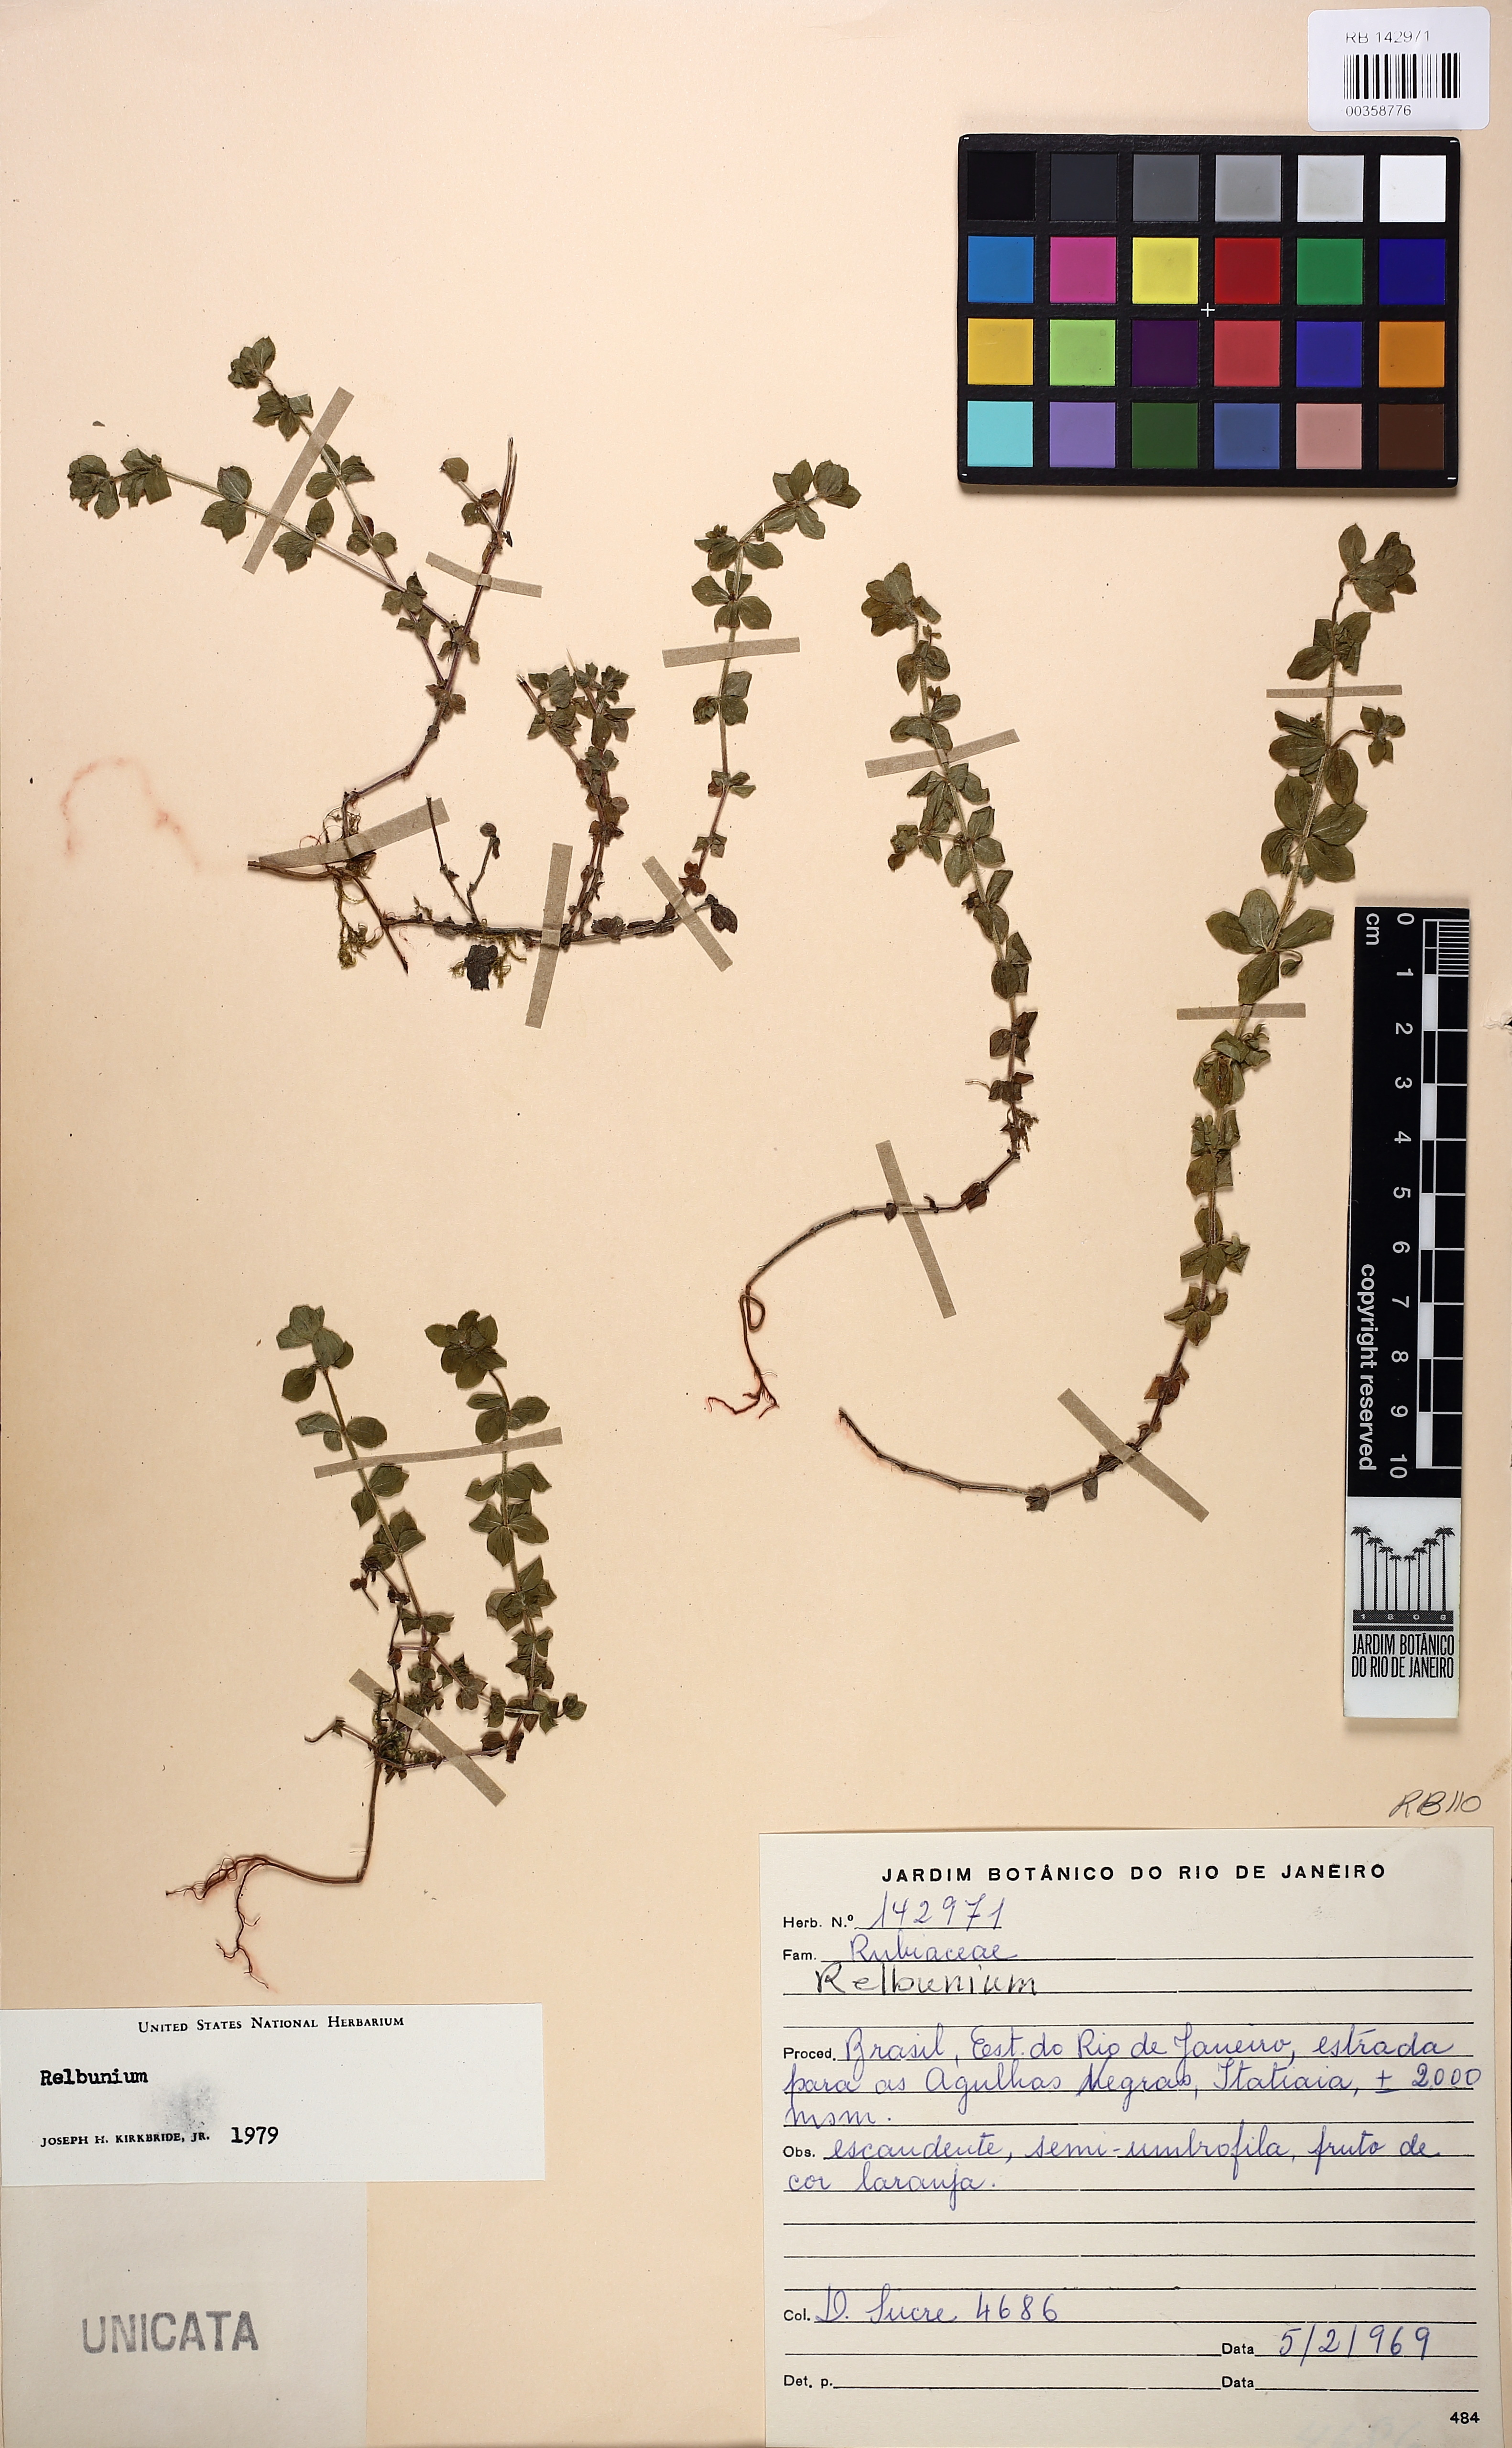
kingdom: Plantae
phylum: Tracheophyta
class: Magnoliopsida
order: Gentianales
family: Rubiaceae
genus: Galium
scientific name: Galium noxium
